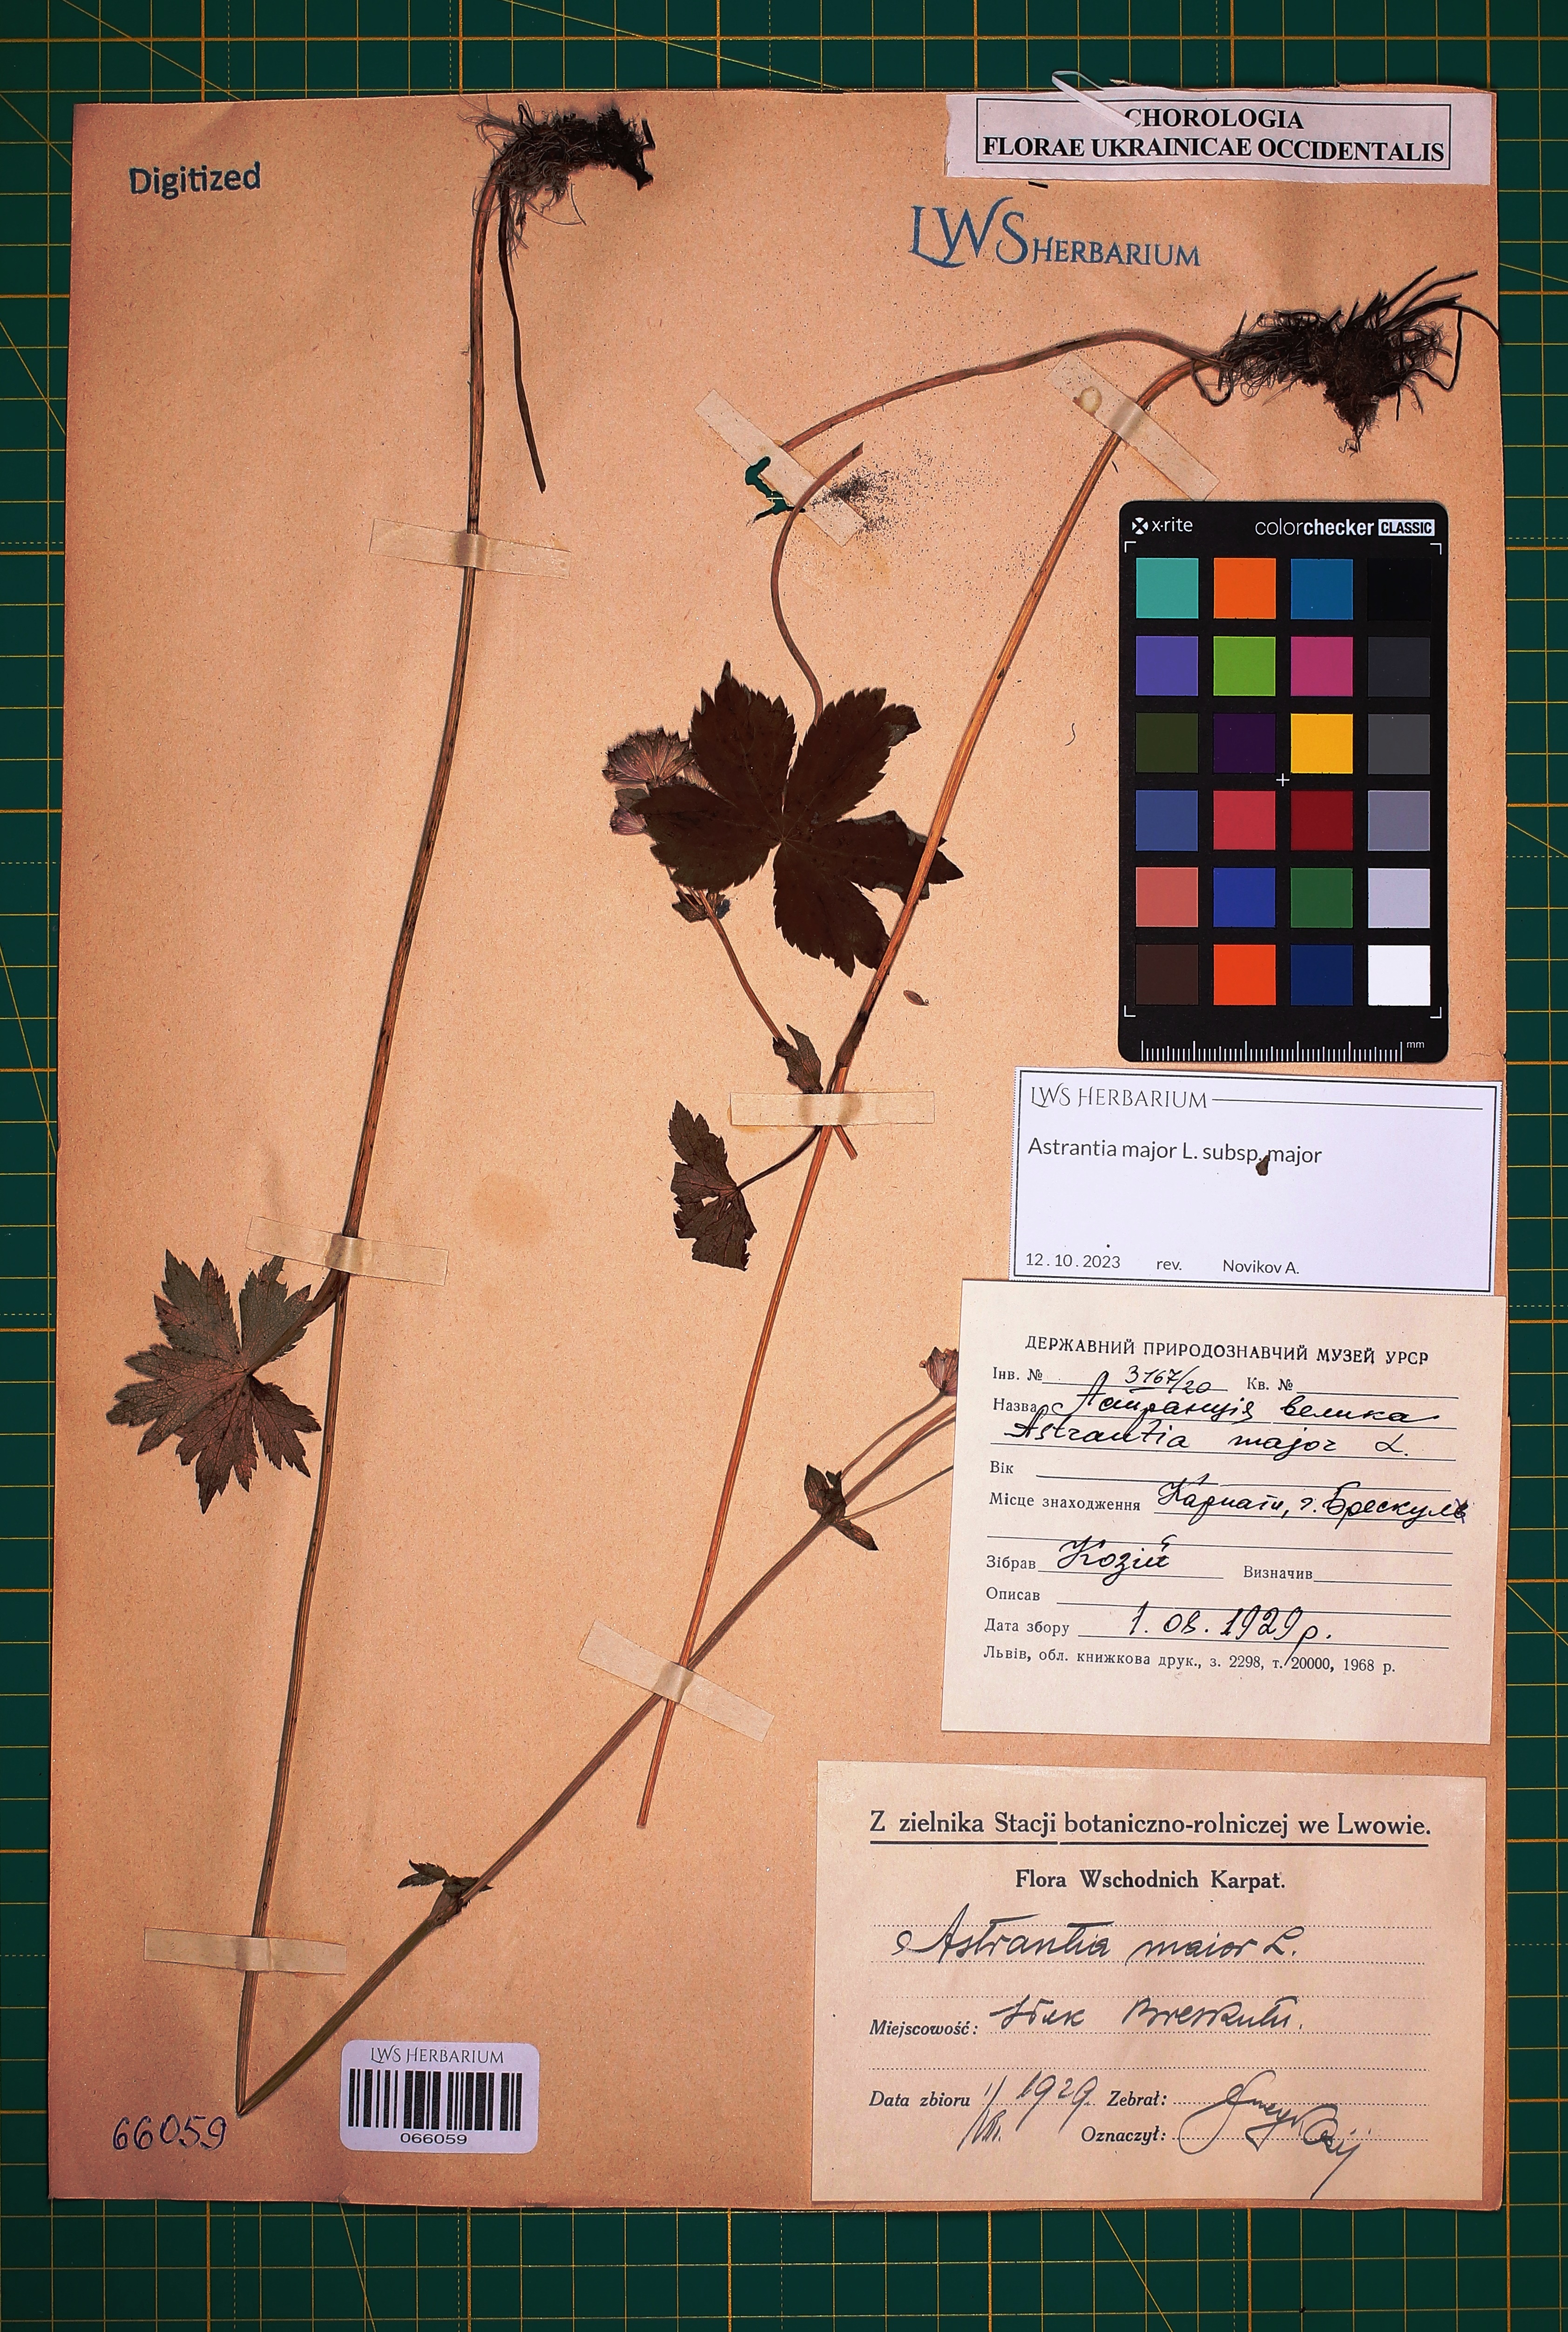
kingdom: Plantae
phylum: Tracheophyta
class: Magnoliopsida
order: Apiales
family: Apiaceae
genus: Astrantia
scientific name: Astrantia major
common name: Greater masterwort
